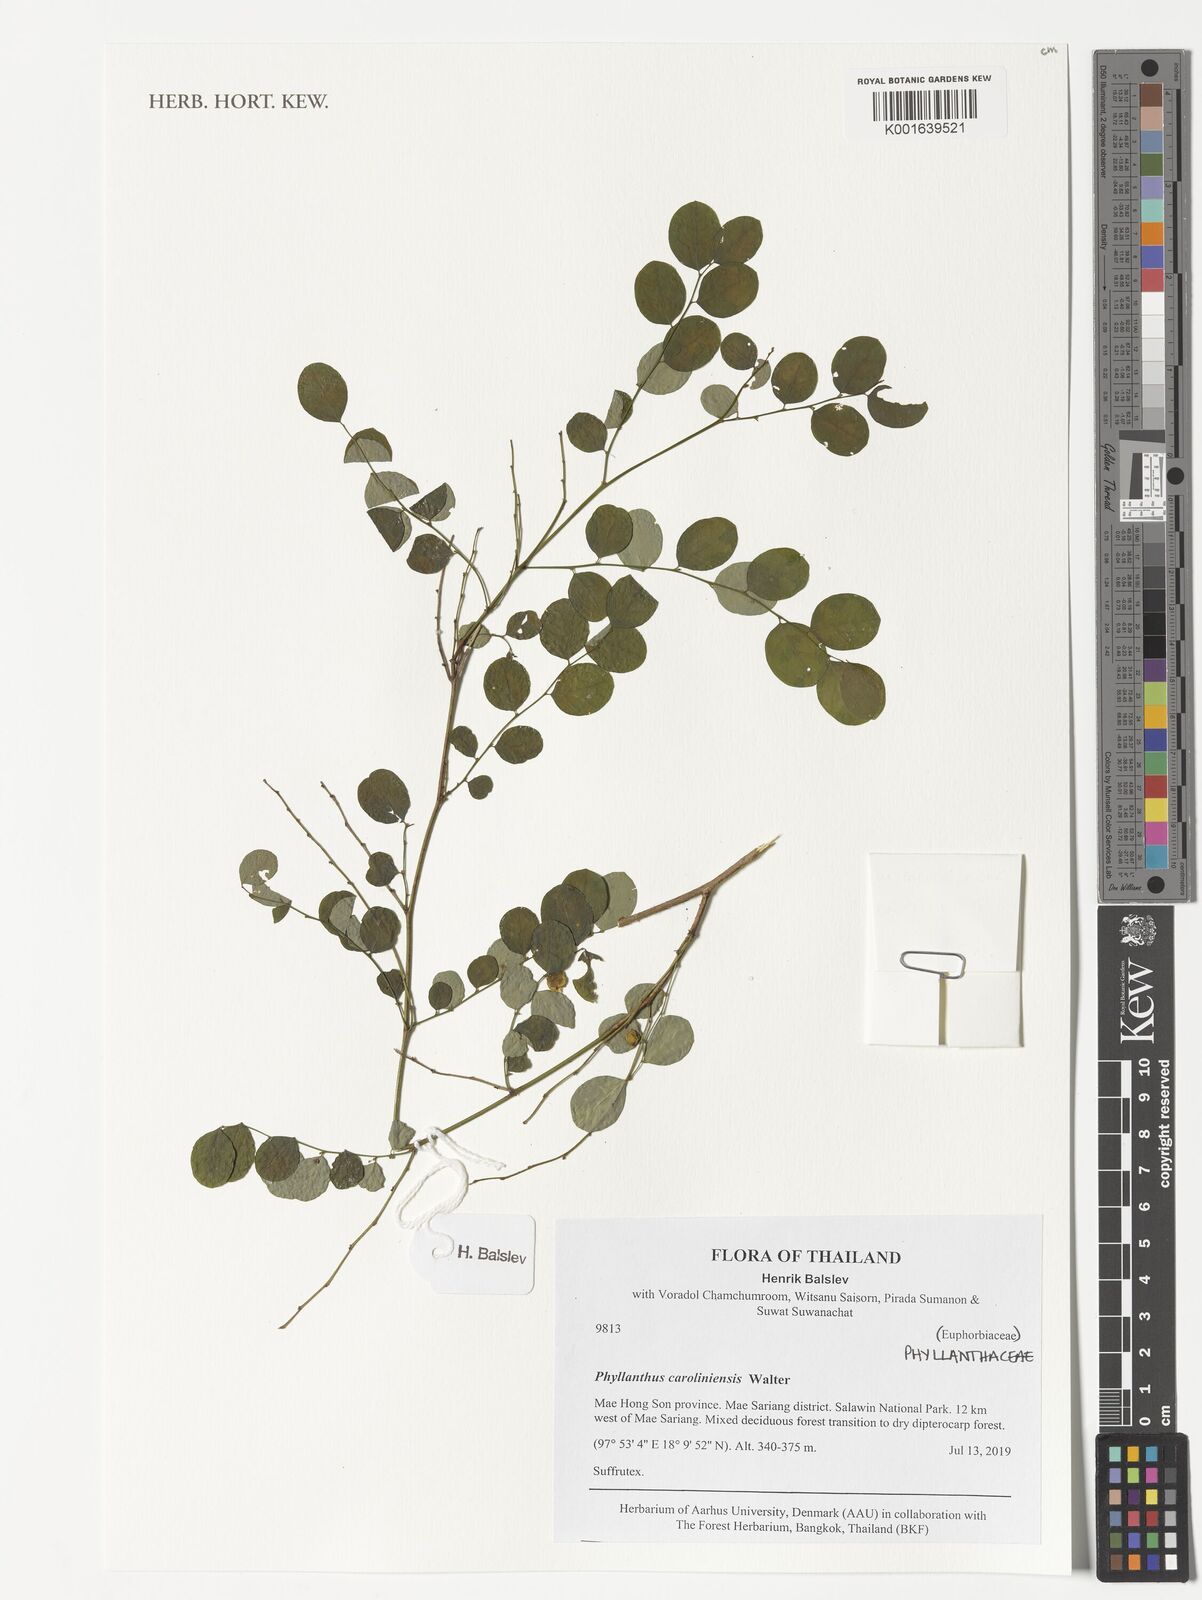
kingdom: Plantae
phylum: Tracheophyta
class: Magnoliopsida
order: Malpighiales
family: Phyllanthaceae
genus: Phyllanthus
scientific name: Phyllanthus caroliniensis
